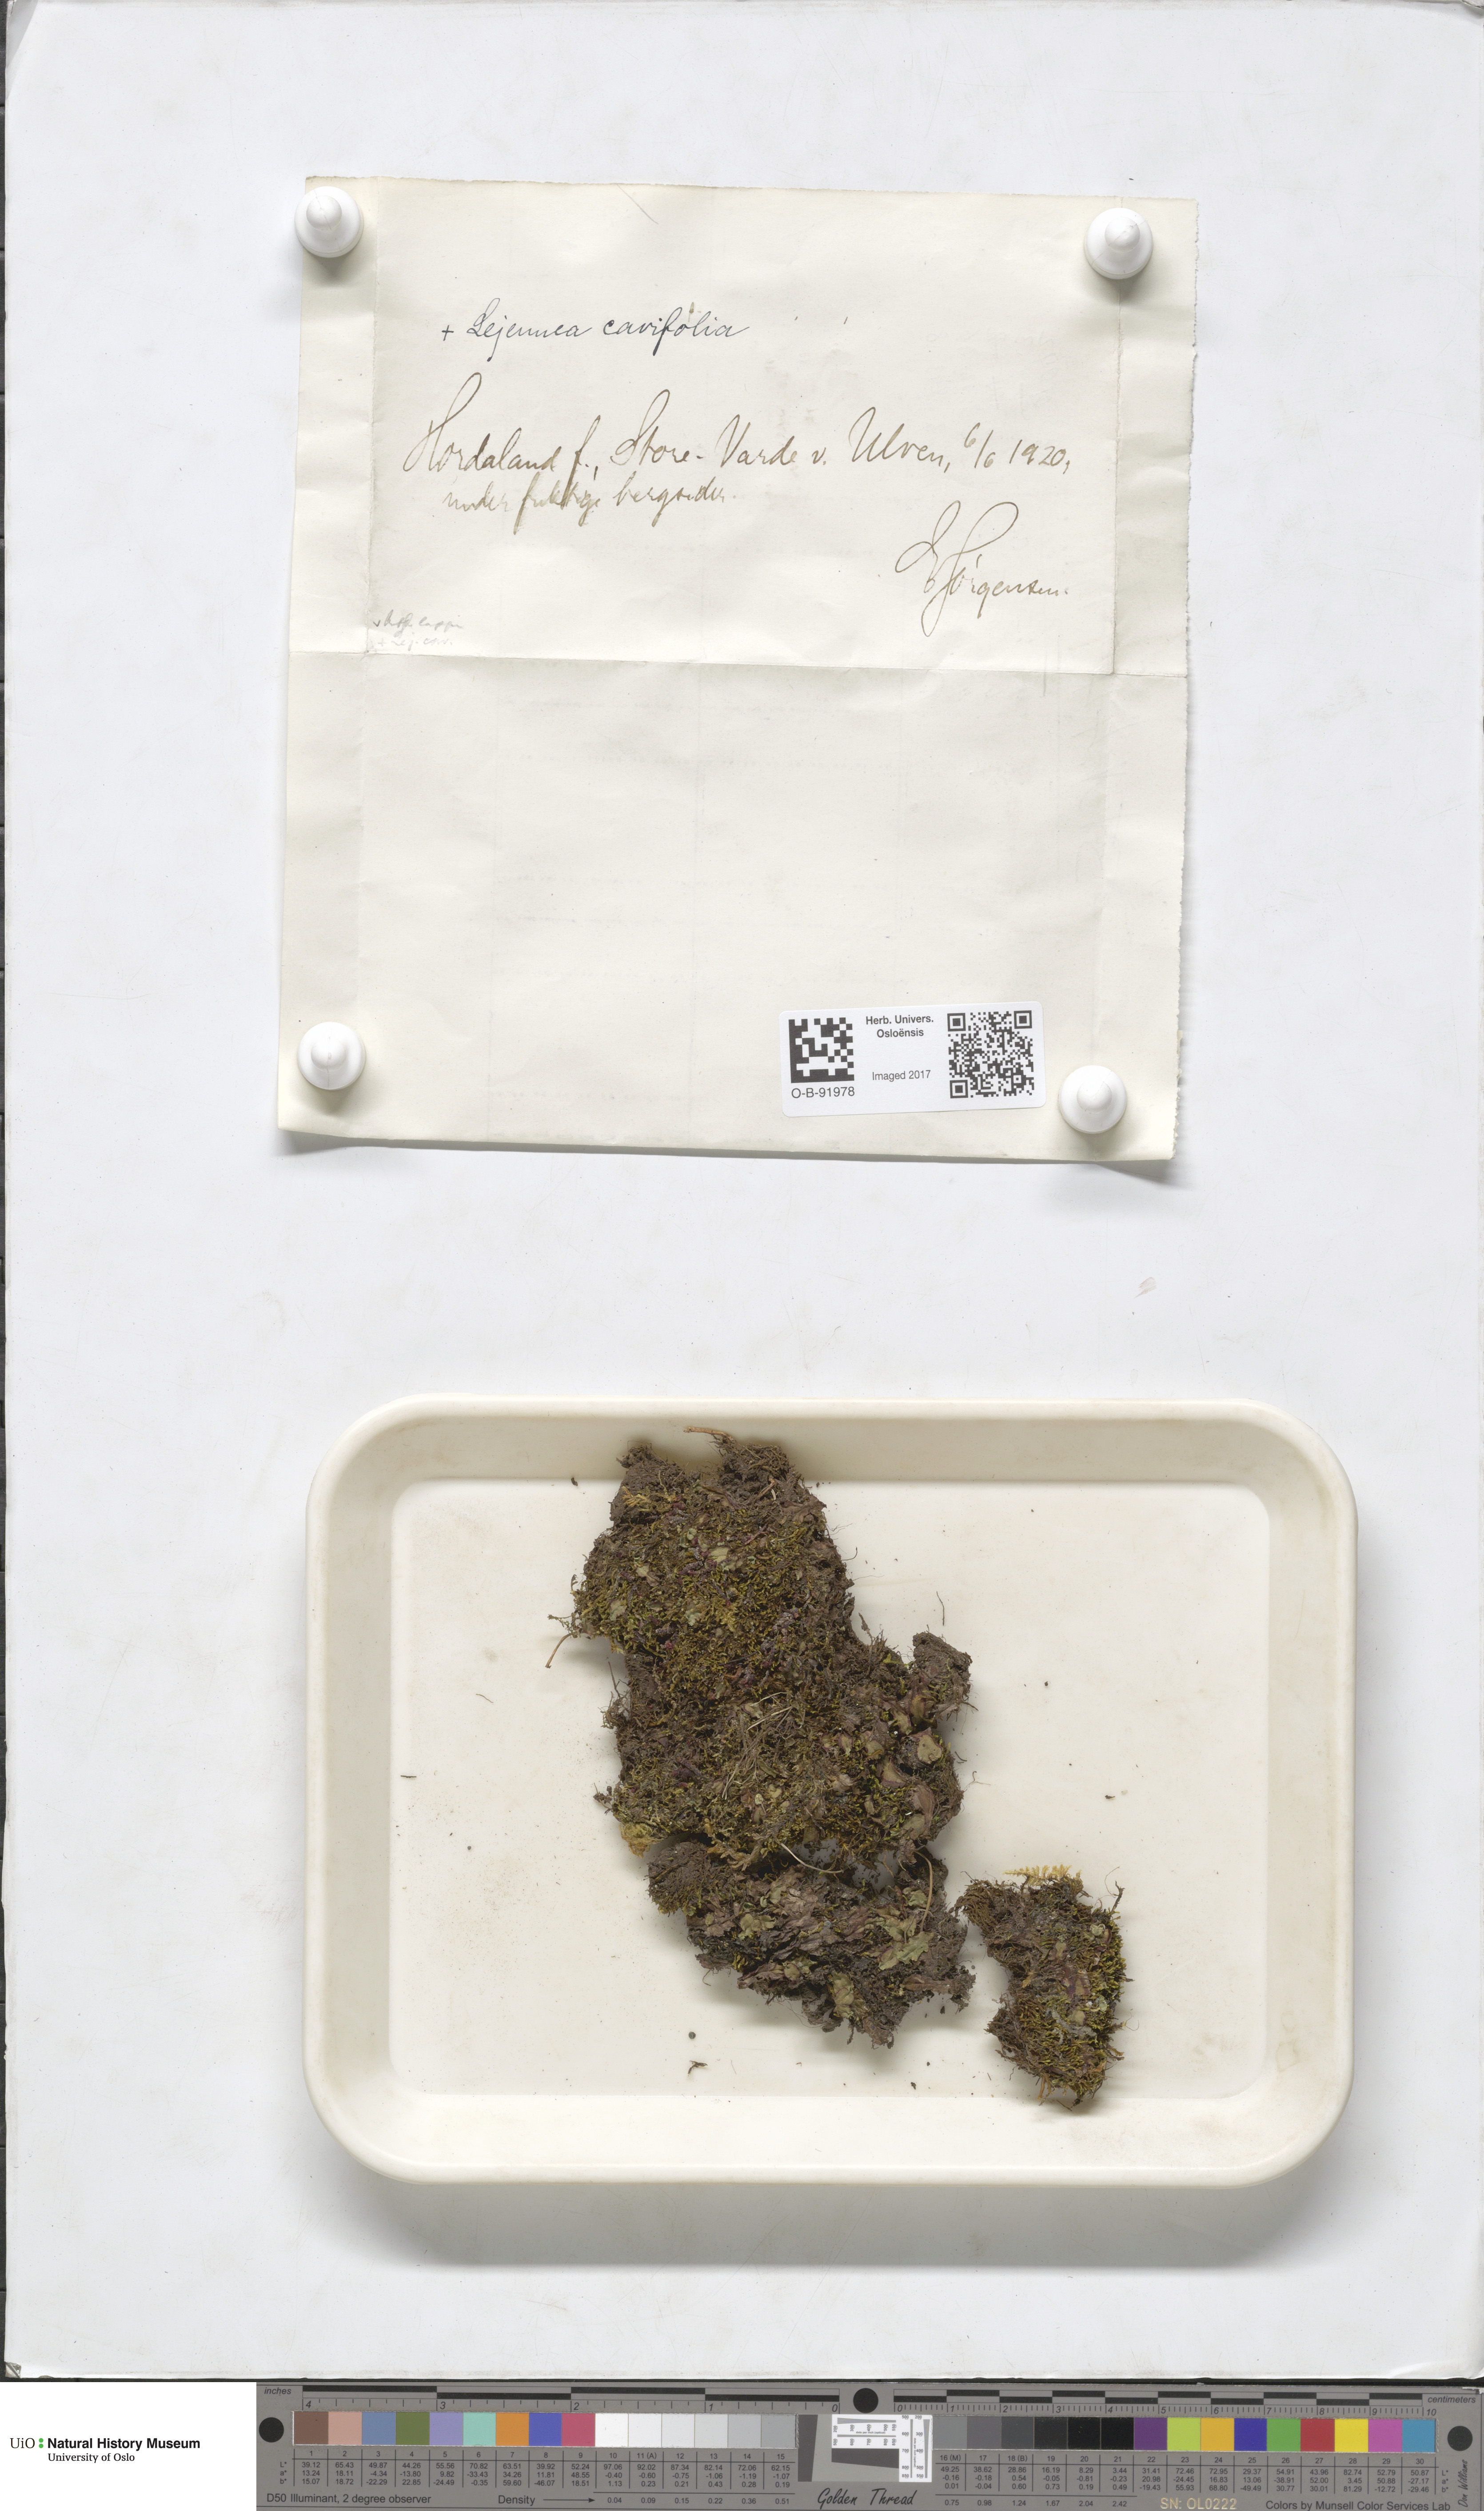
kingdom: Plantae
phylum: Marchantiophyta
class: Jungermanniopsida
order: Jungermanniales
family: Jungermanniaceae
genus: Mesoptychia
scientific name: Mesoptychia collaris
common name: Collared notchwort
